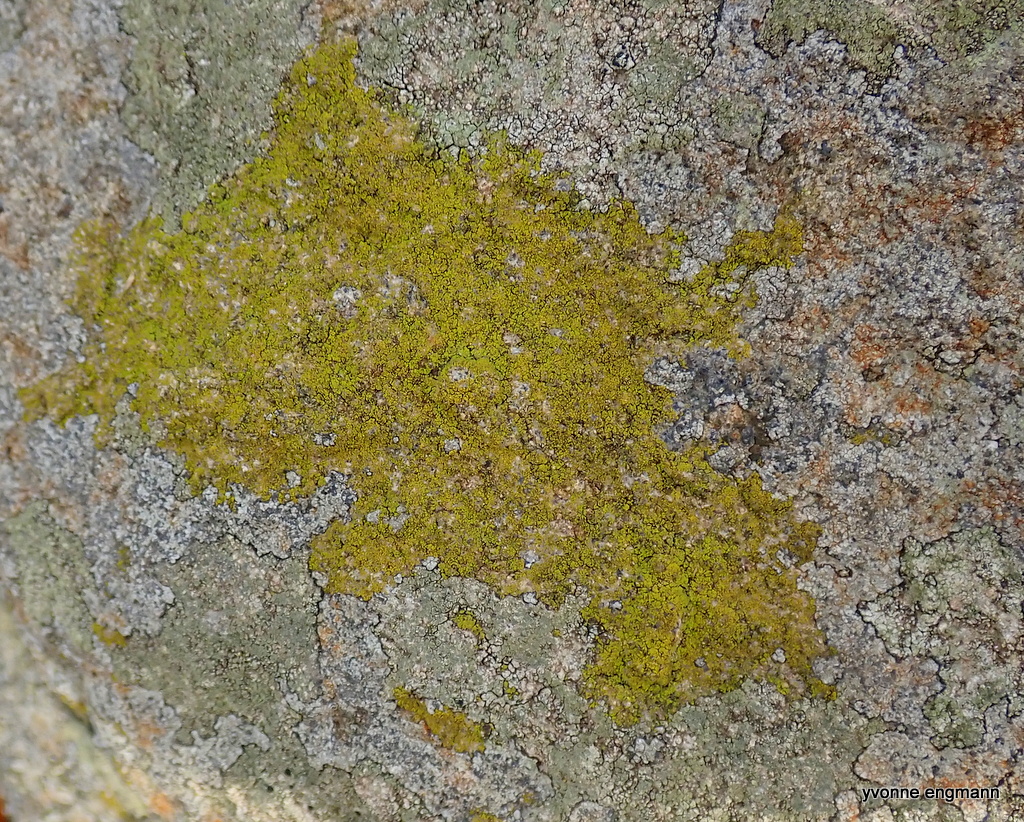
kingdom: Fungi
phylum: Ascomycota
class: Candelariomycetes
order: Candelariales
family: Candelariaceae
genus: Candelariella
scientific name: Candelariella vitellina
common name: almindelig æggeblommelav
